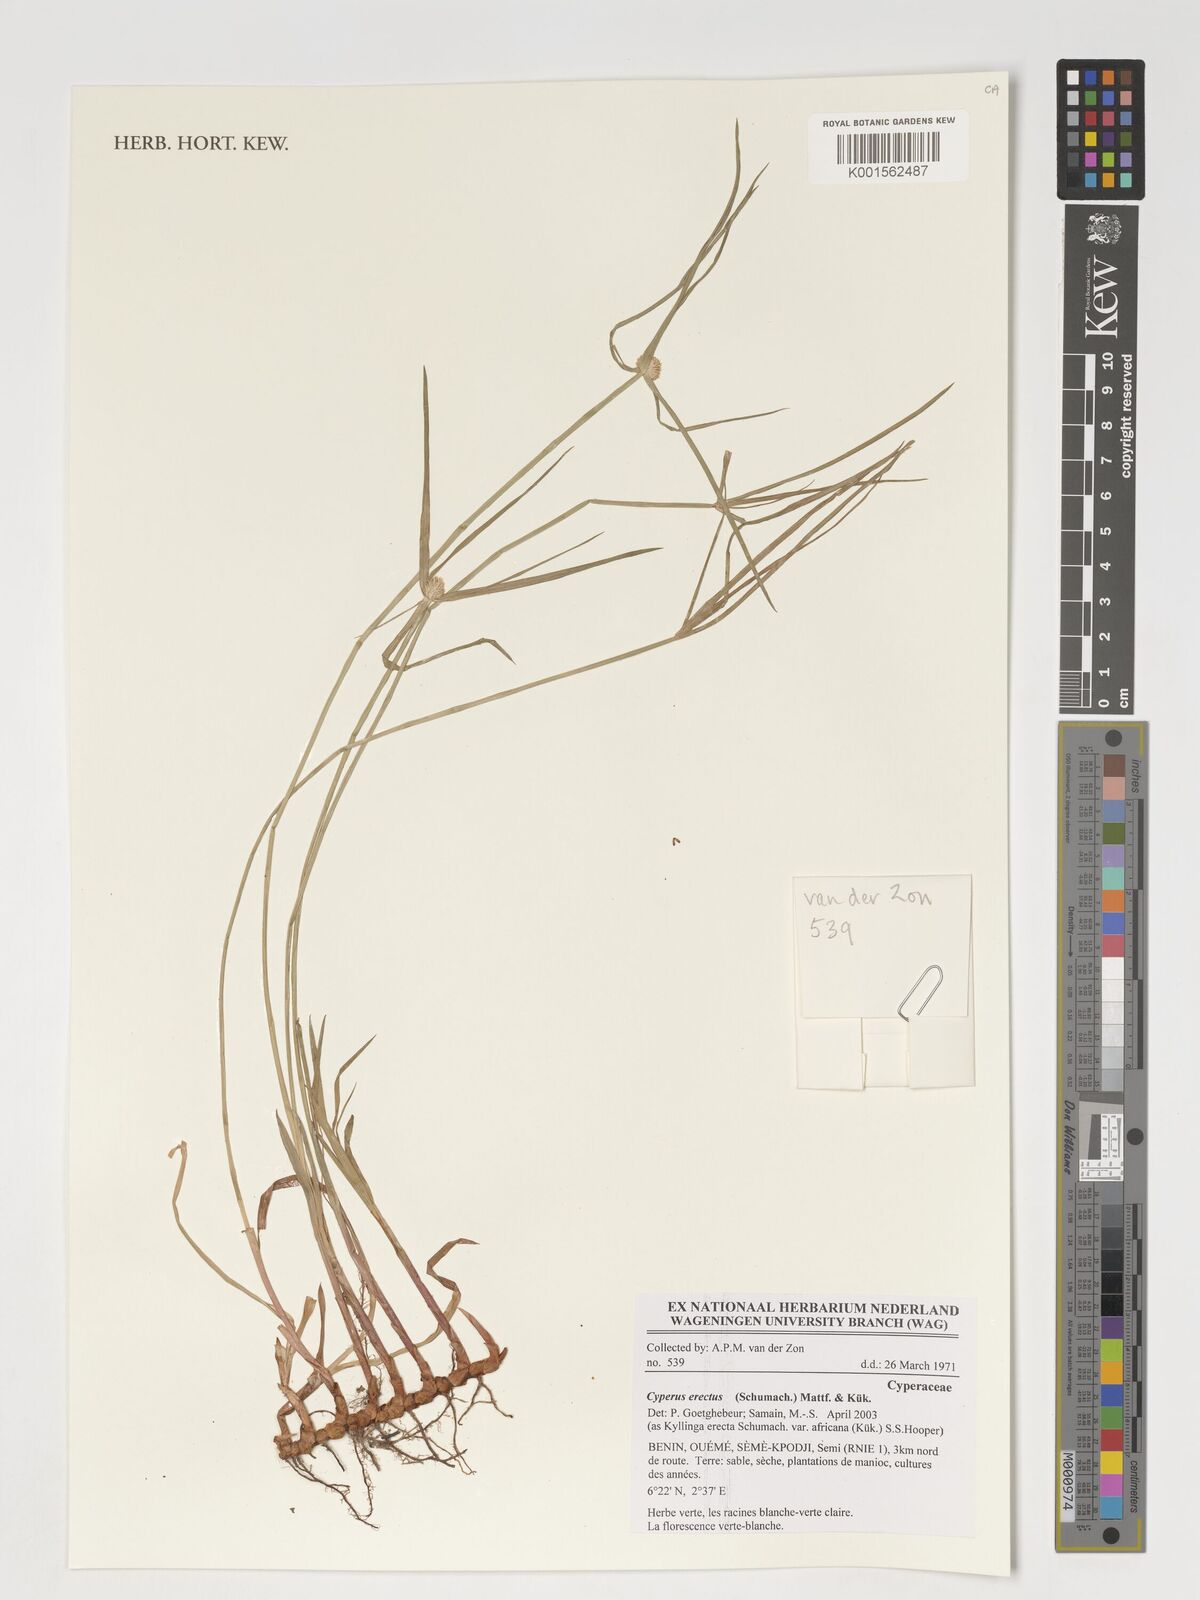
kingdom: Plantae
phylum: Tracheophyta
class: Liliopsida
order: Poales
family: Cyperaceae
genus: Cyperus
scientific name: Cyperus erectus
